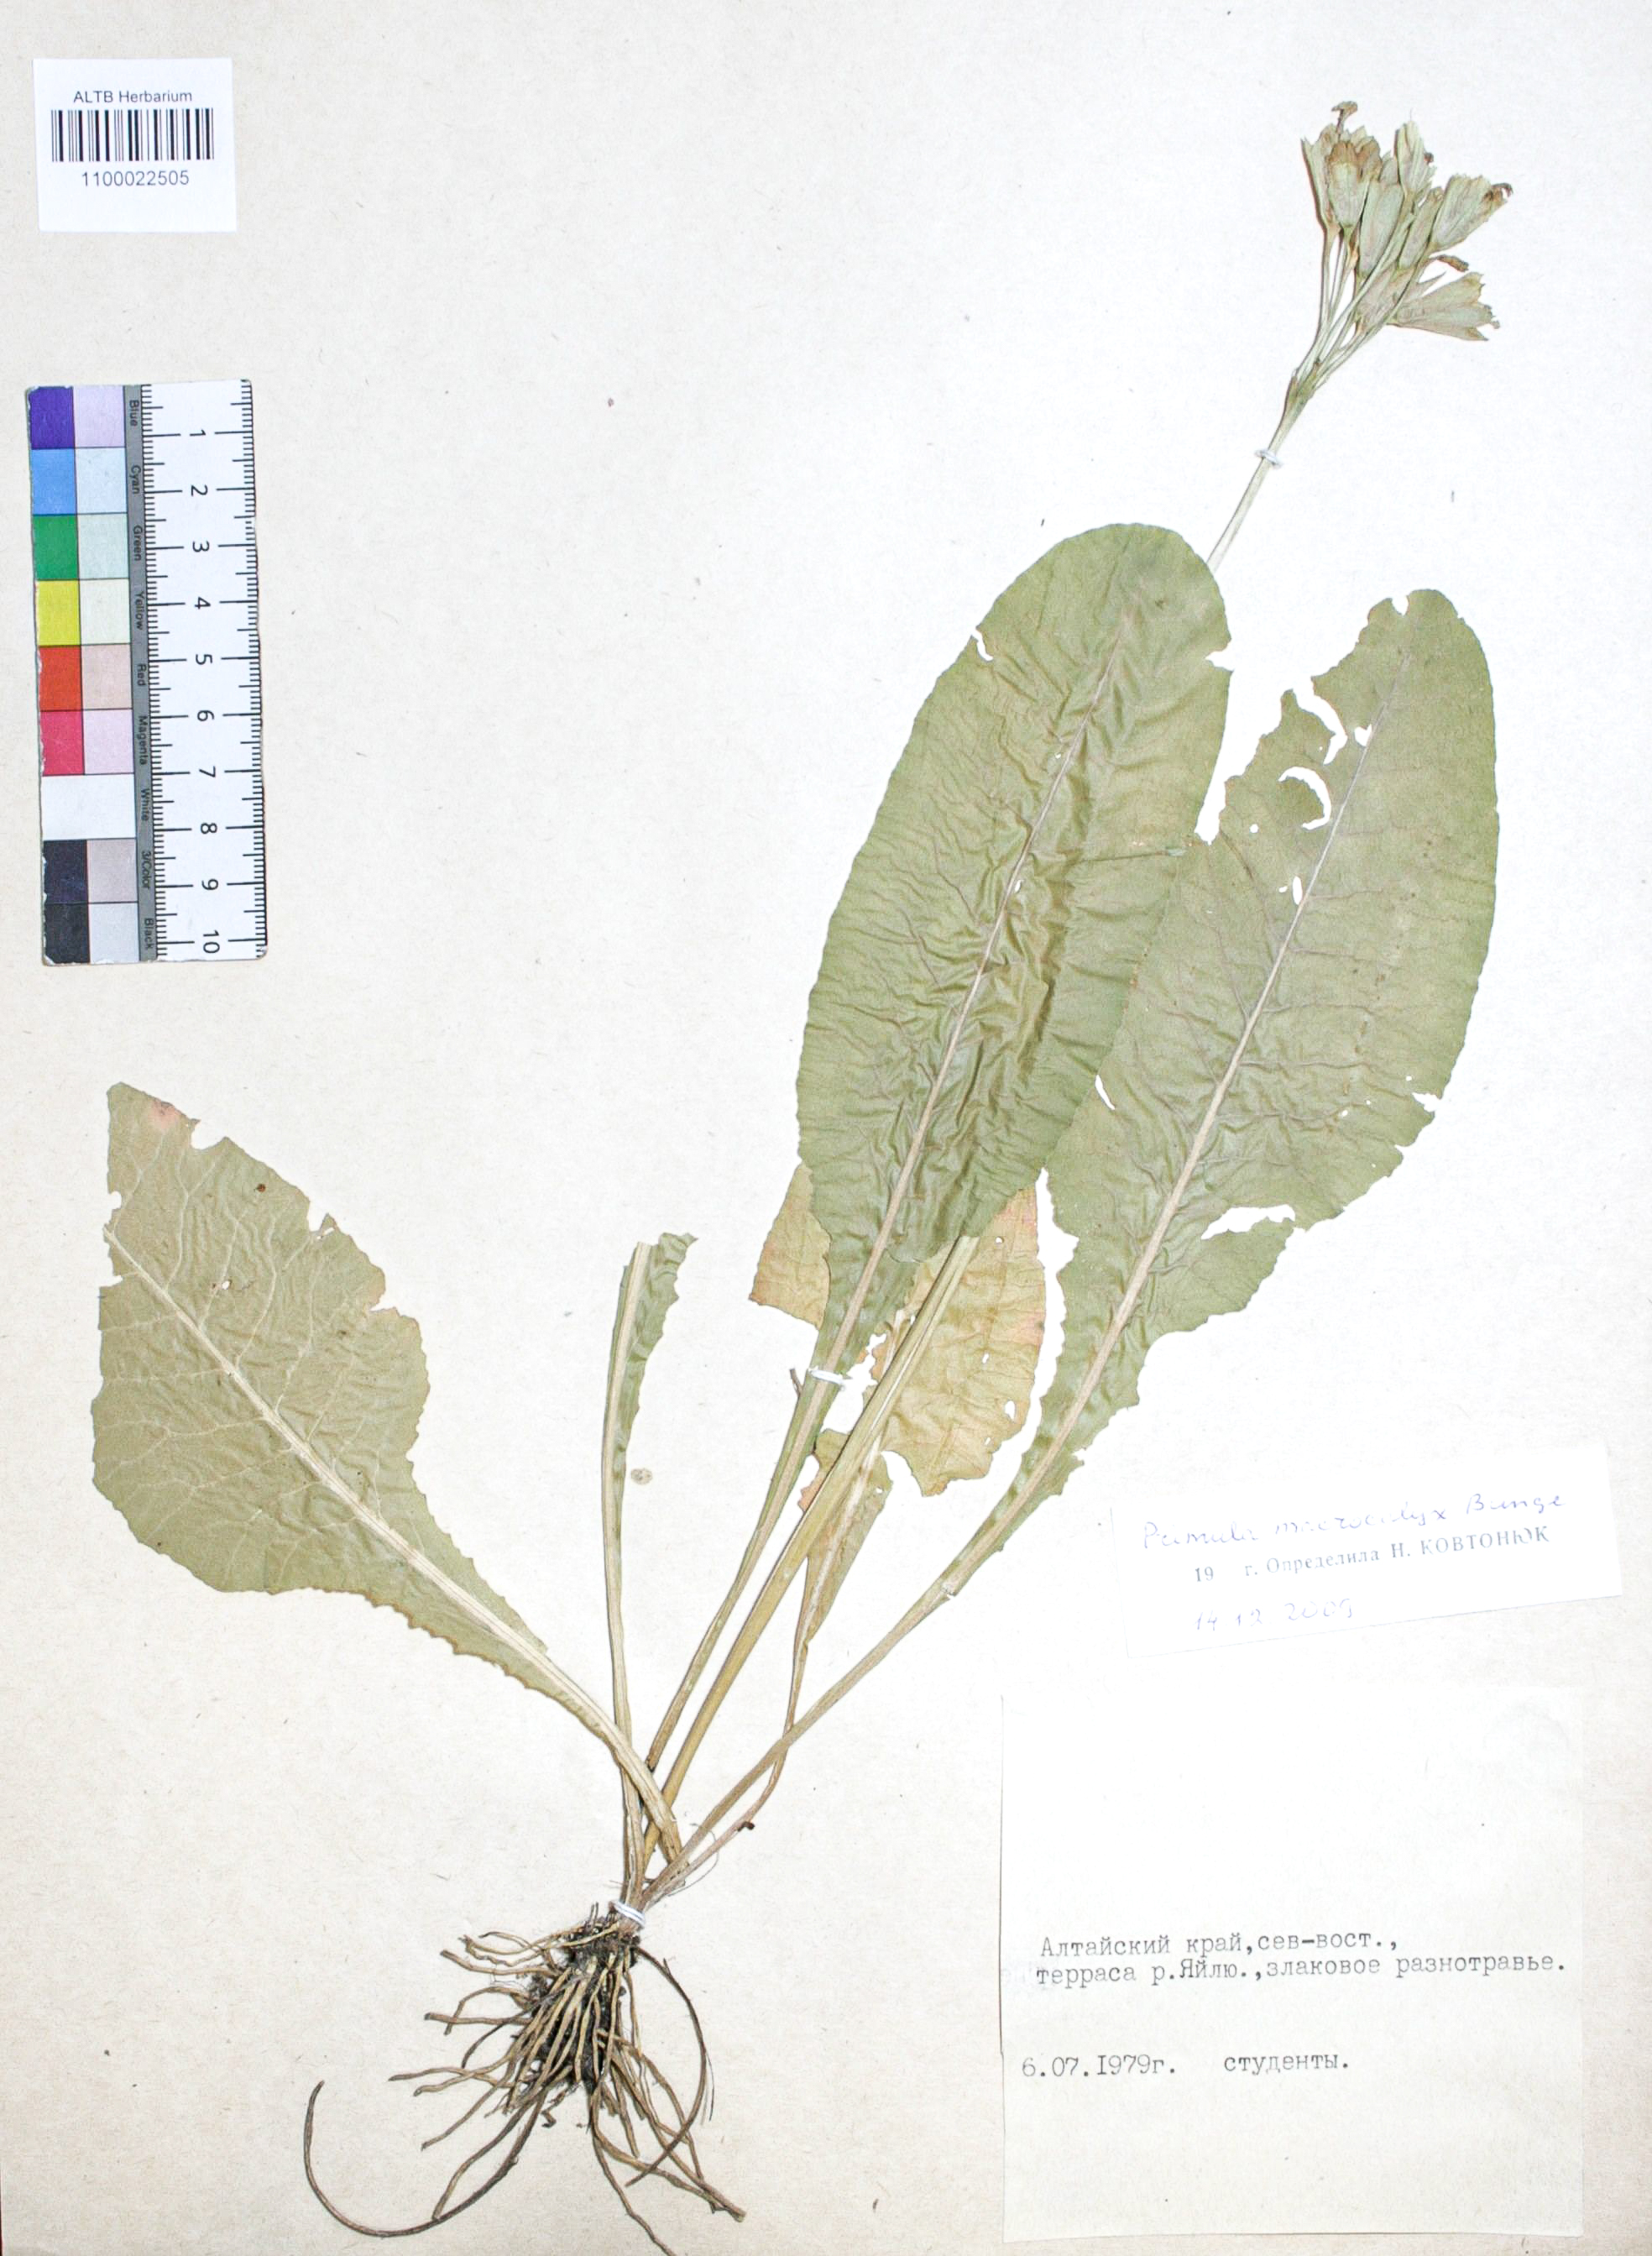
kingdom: Plantae
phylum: Tracheophyta
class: Magnoliopsida
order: Ericales
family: Primulaceae
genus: Primula
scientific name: Primula veris
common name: Cowslip
